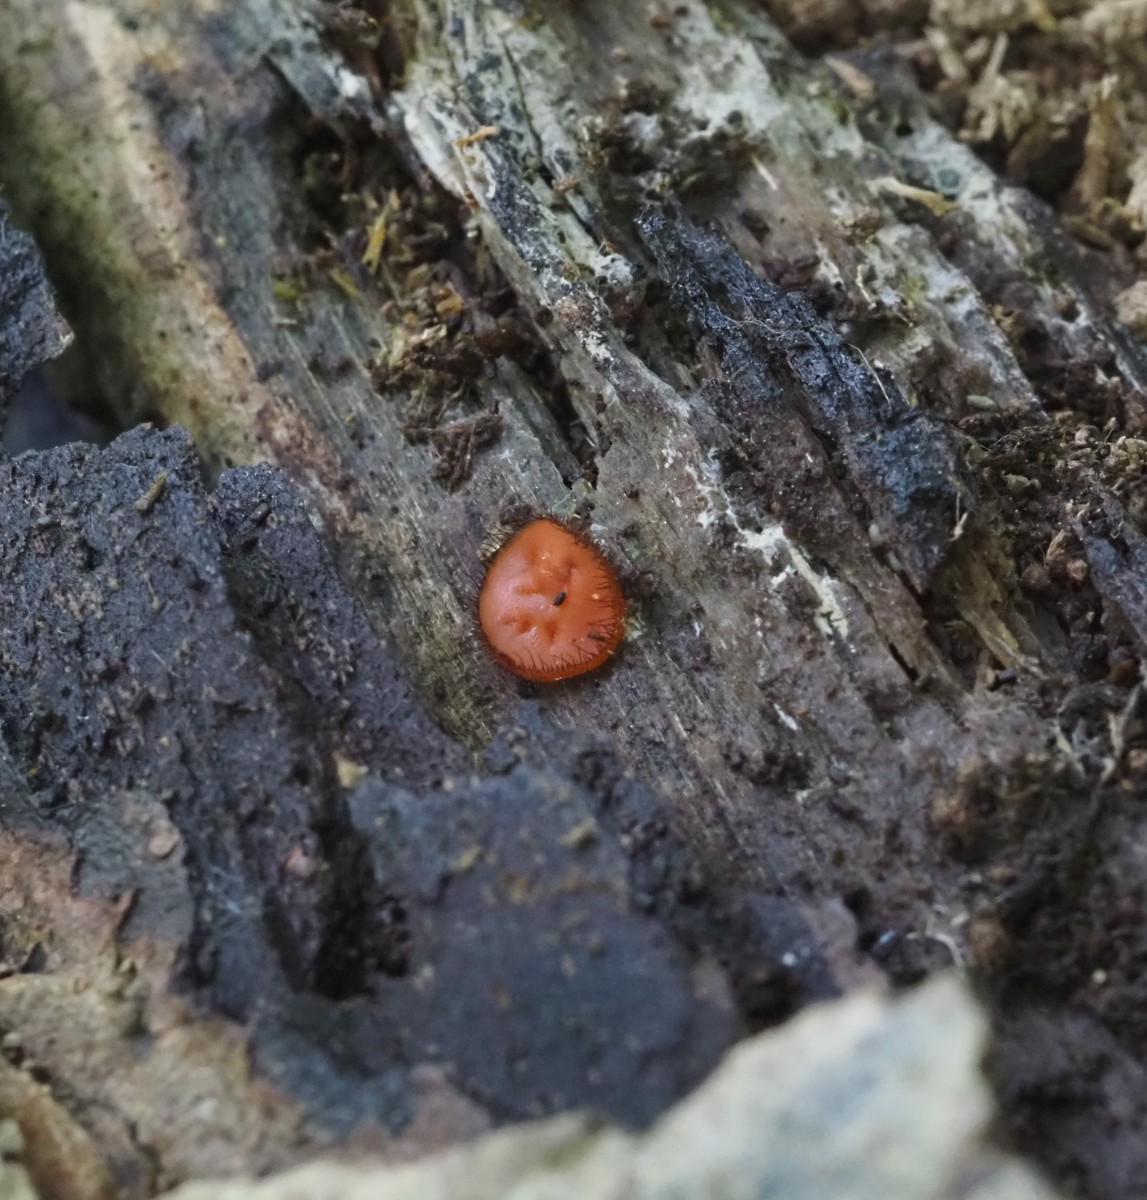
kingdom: Fungi
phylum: Ascomycota
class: Pezizomycetes
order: Pezizales
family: Pyronemataceae
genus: Scutellinia
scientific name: Scutellinia scutellata
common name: frynset skjoldbæger
